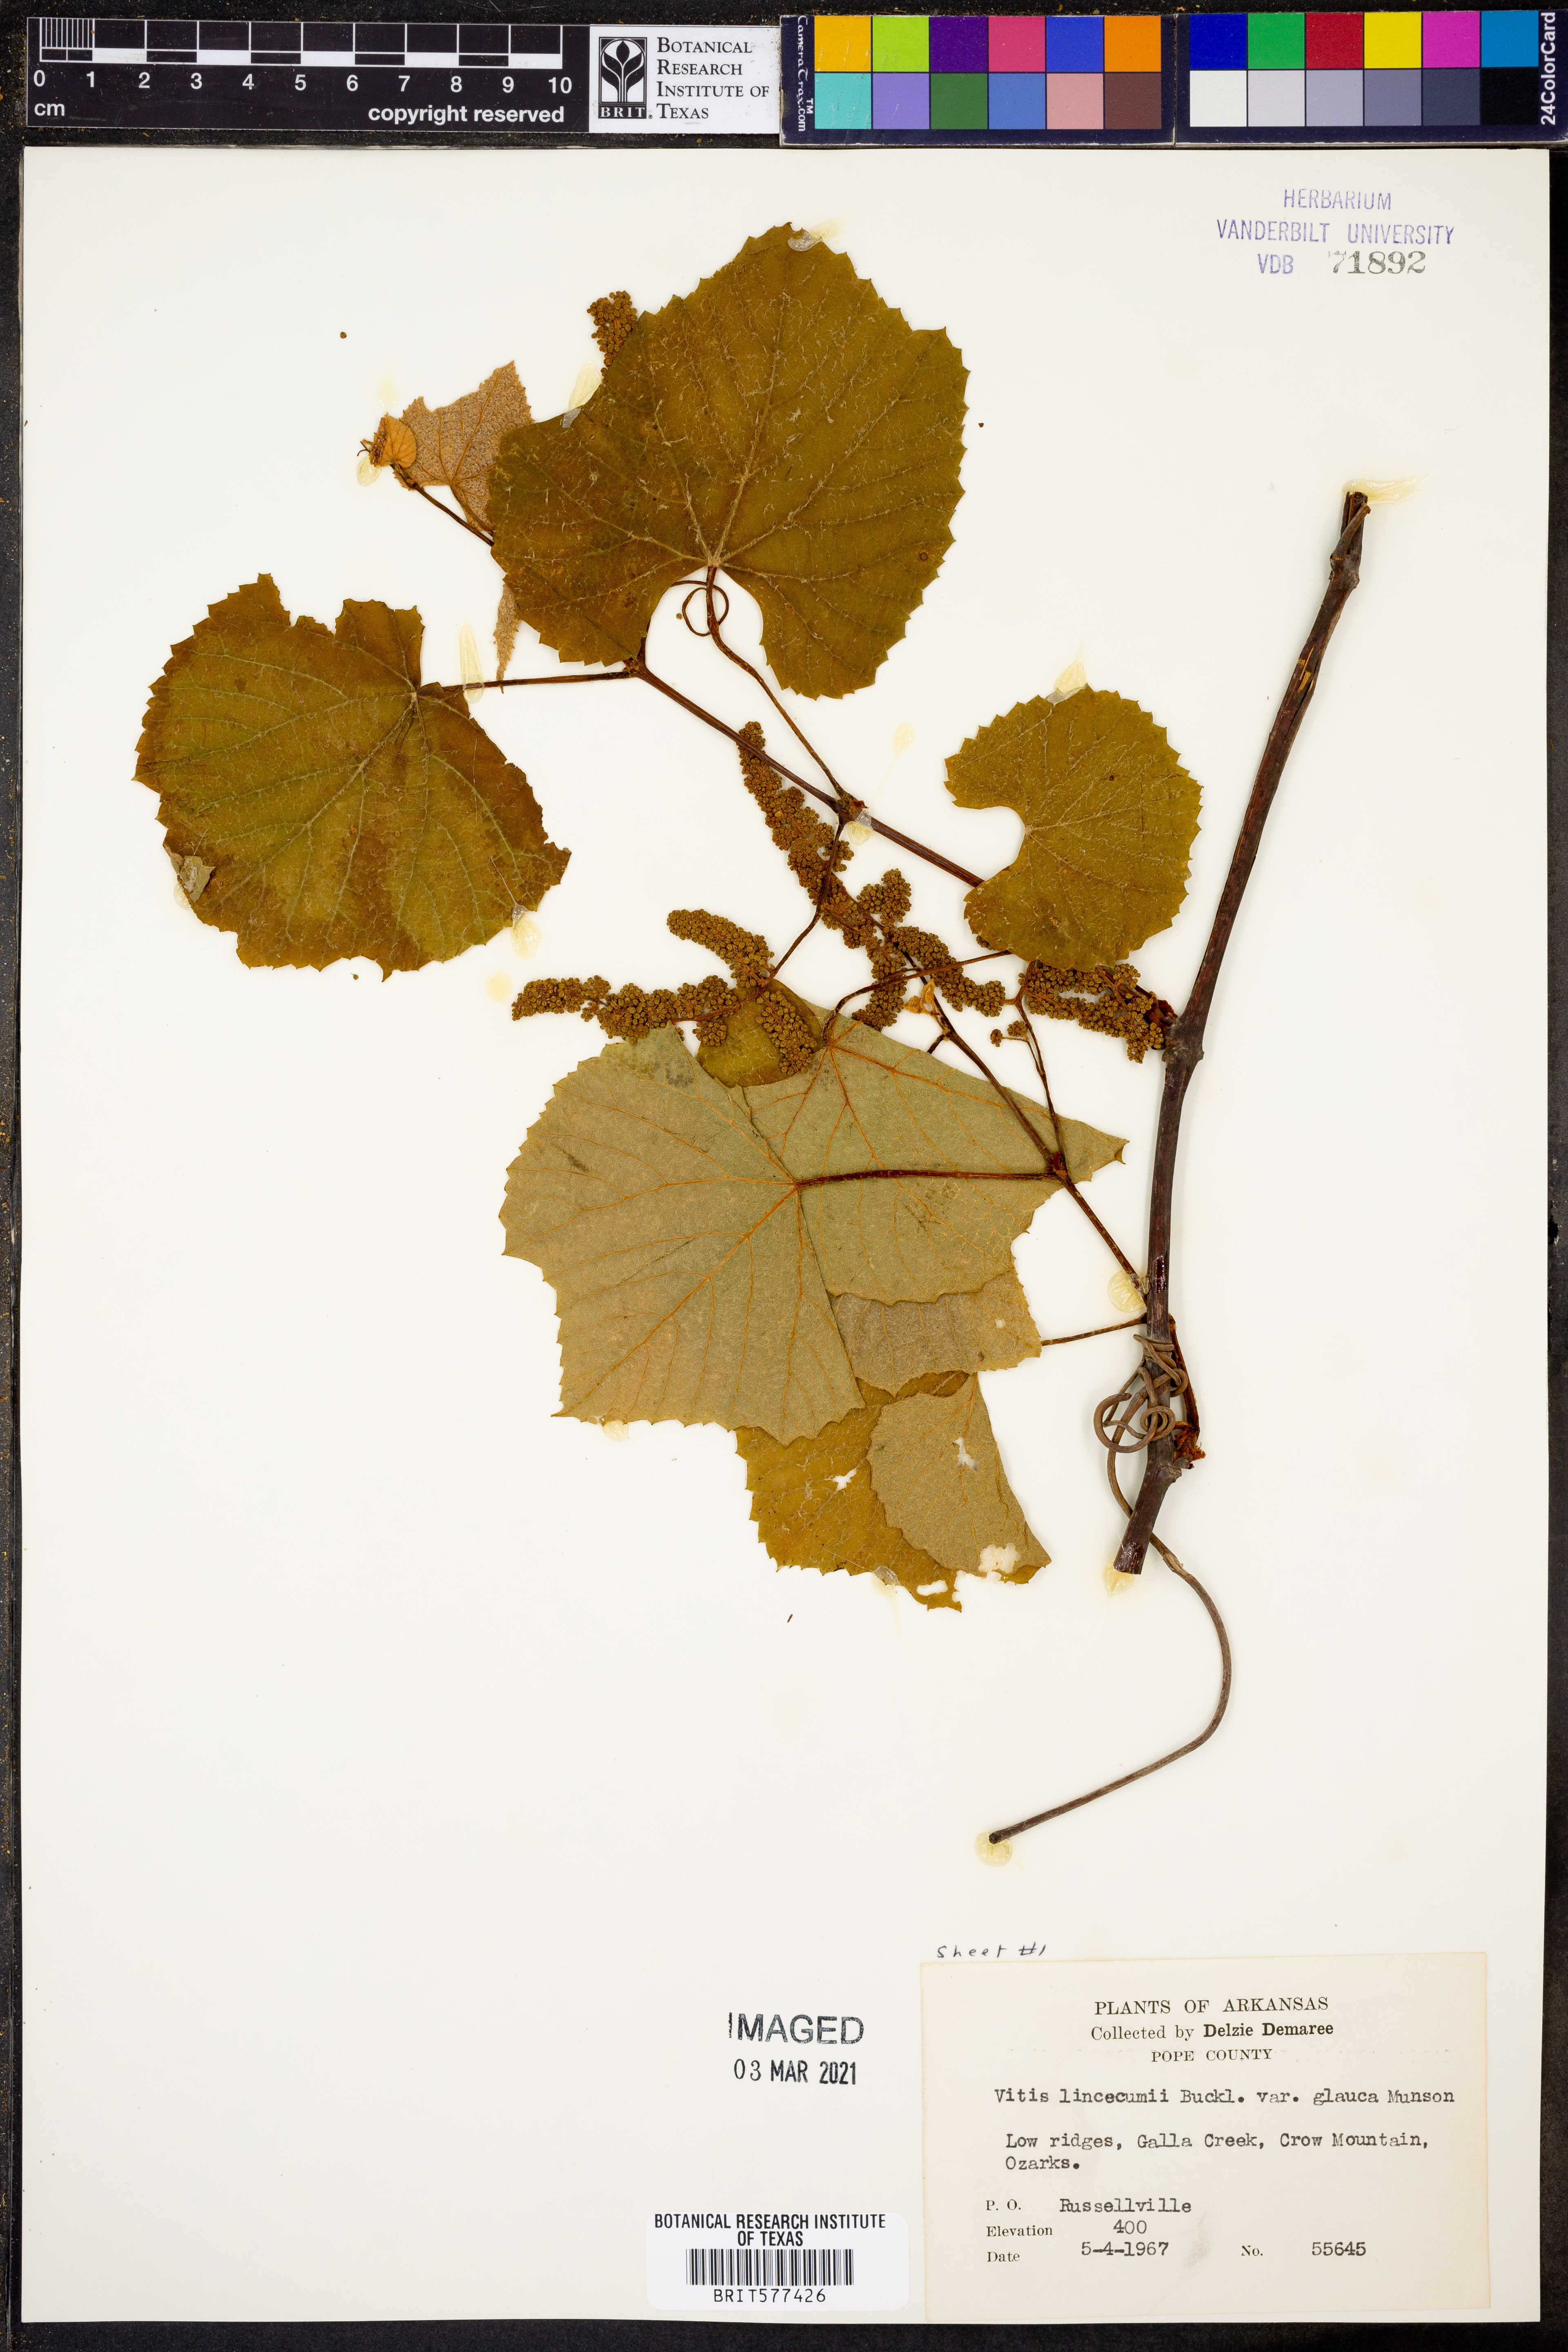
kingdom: Plantae
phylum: Tracheophyta
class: Magnoliopsida
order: Vitales
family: Vitaceae
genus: Vitis
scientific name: Vitis aestivalis
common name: Pigeon grape
